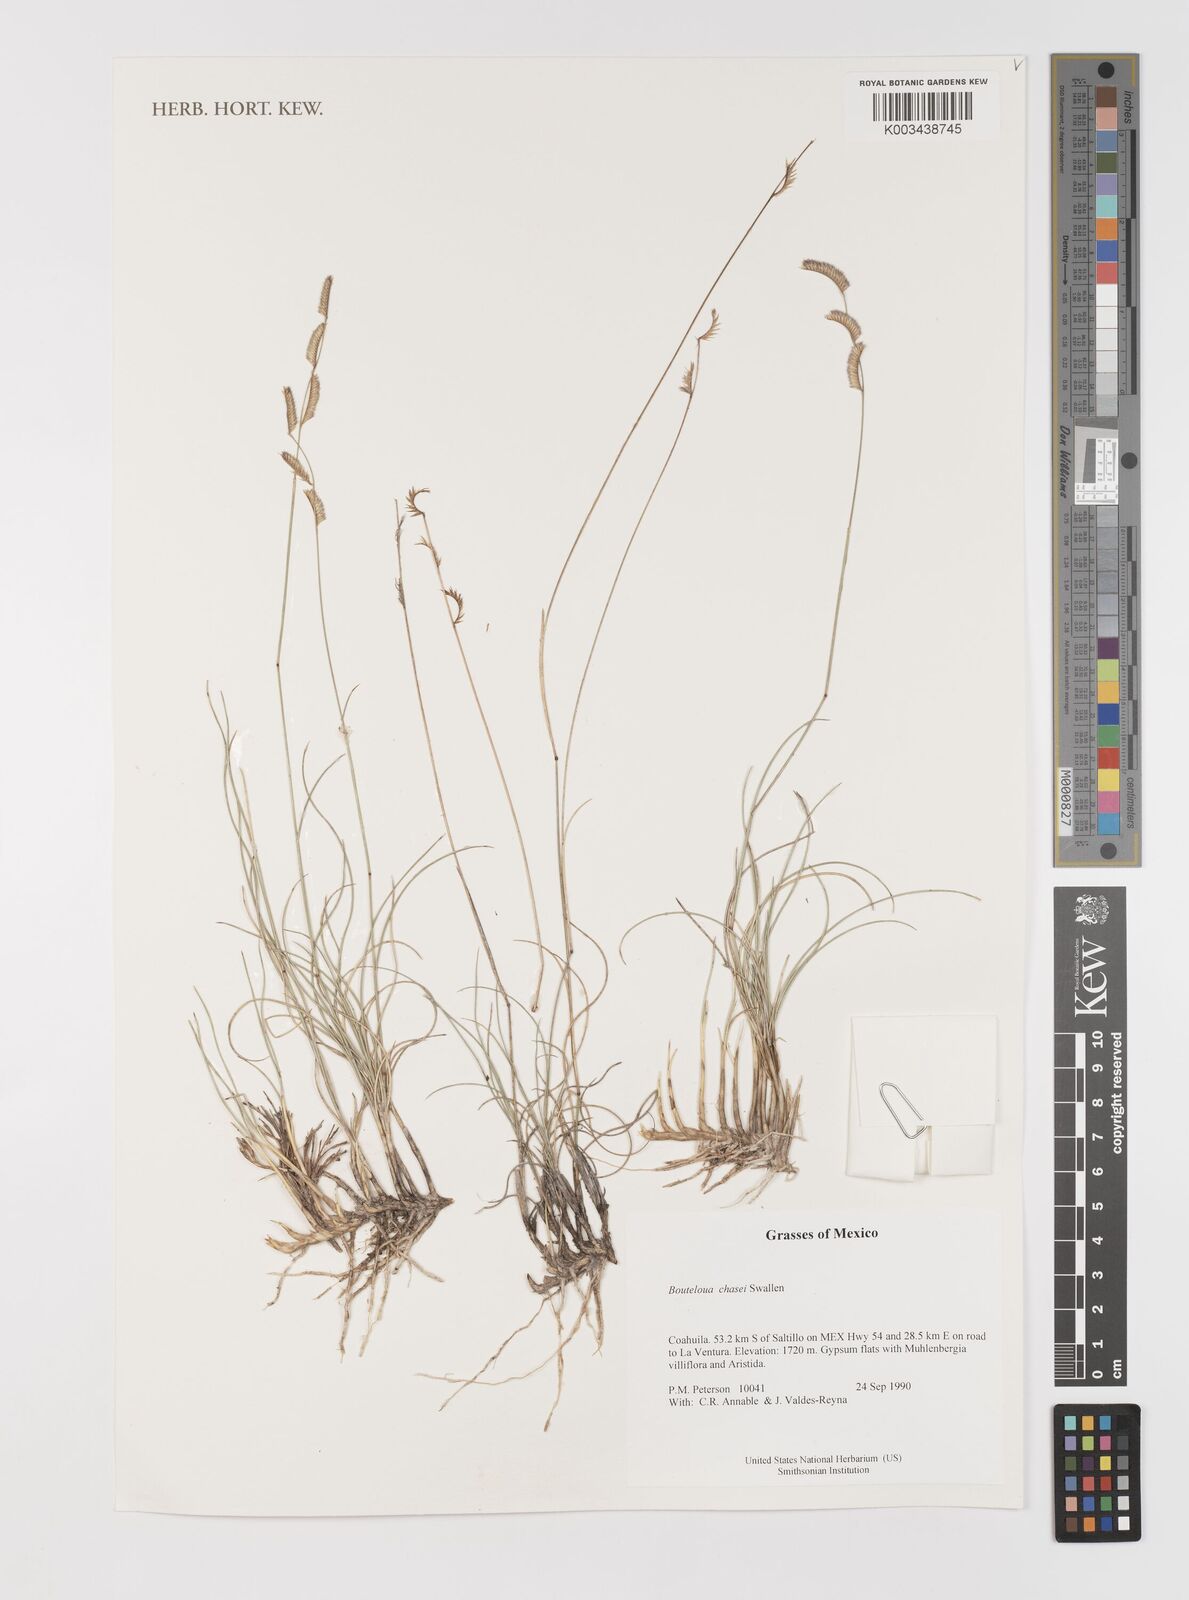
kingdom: Plantae
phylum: Tracheophyta
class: Liliopsida
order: Poales
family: Poaceae
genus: Bouteloua
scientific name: Bouteloua chasei
